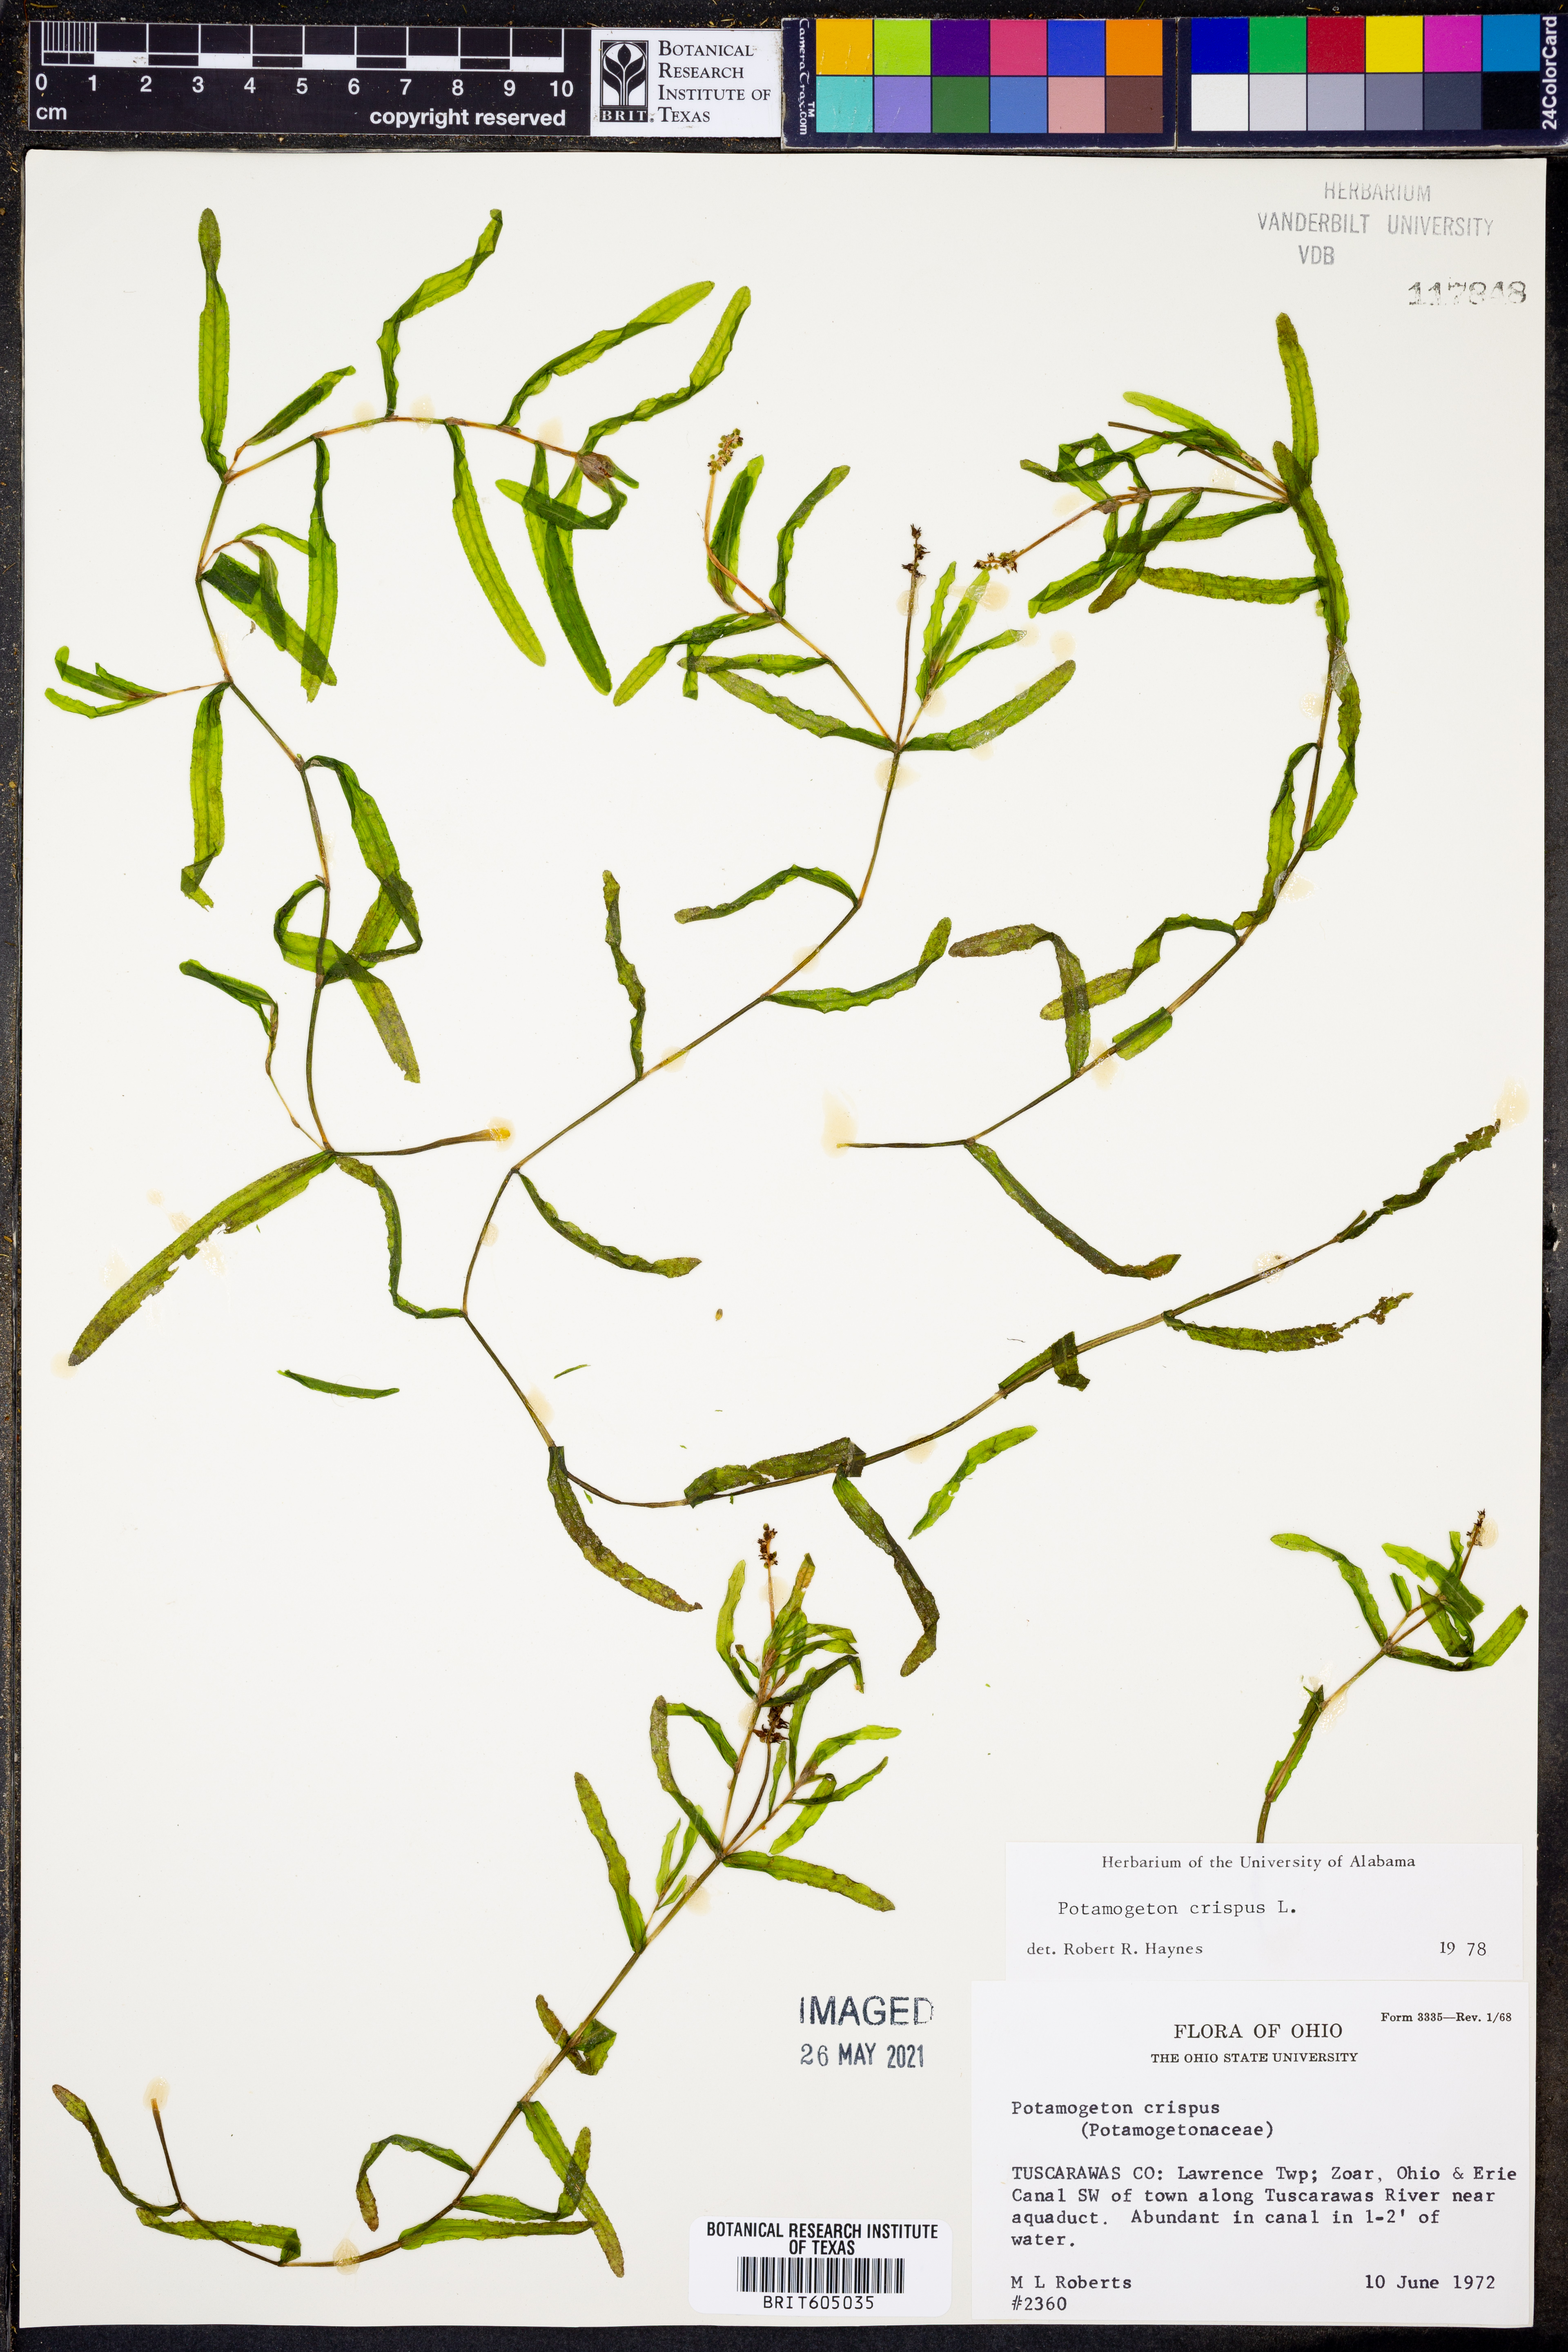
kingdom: Plantae
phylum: Tracheophyta
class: Liliopsida
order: Alismatales
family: Potamogetonaceae
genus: Potamogeton
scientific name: Potamogeton crispus
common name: Curled pondweed
